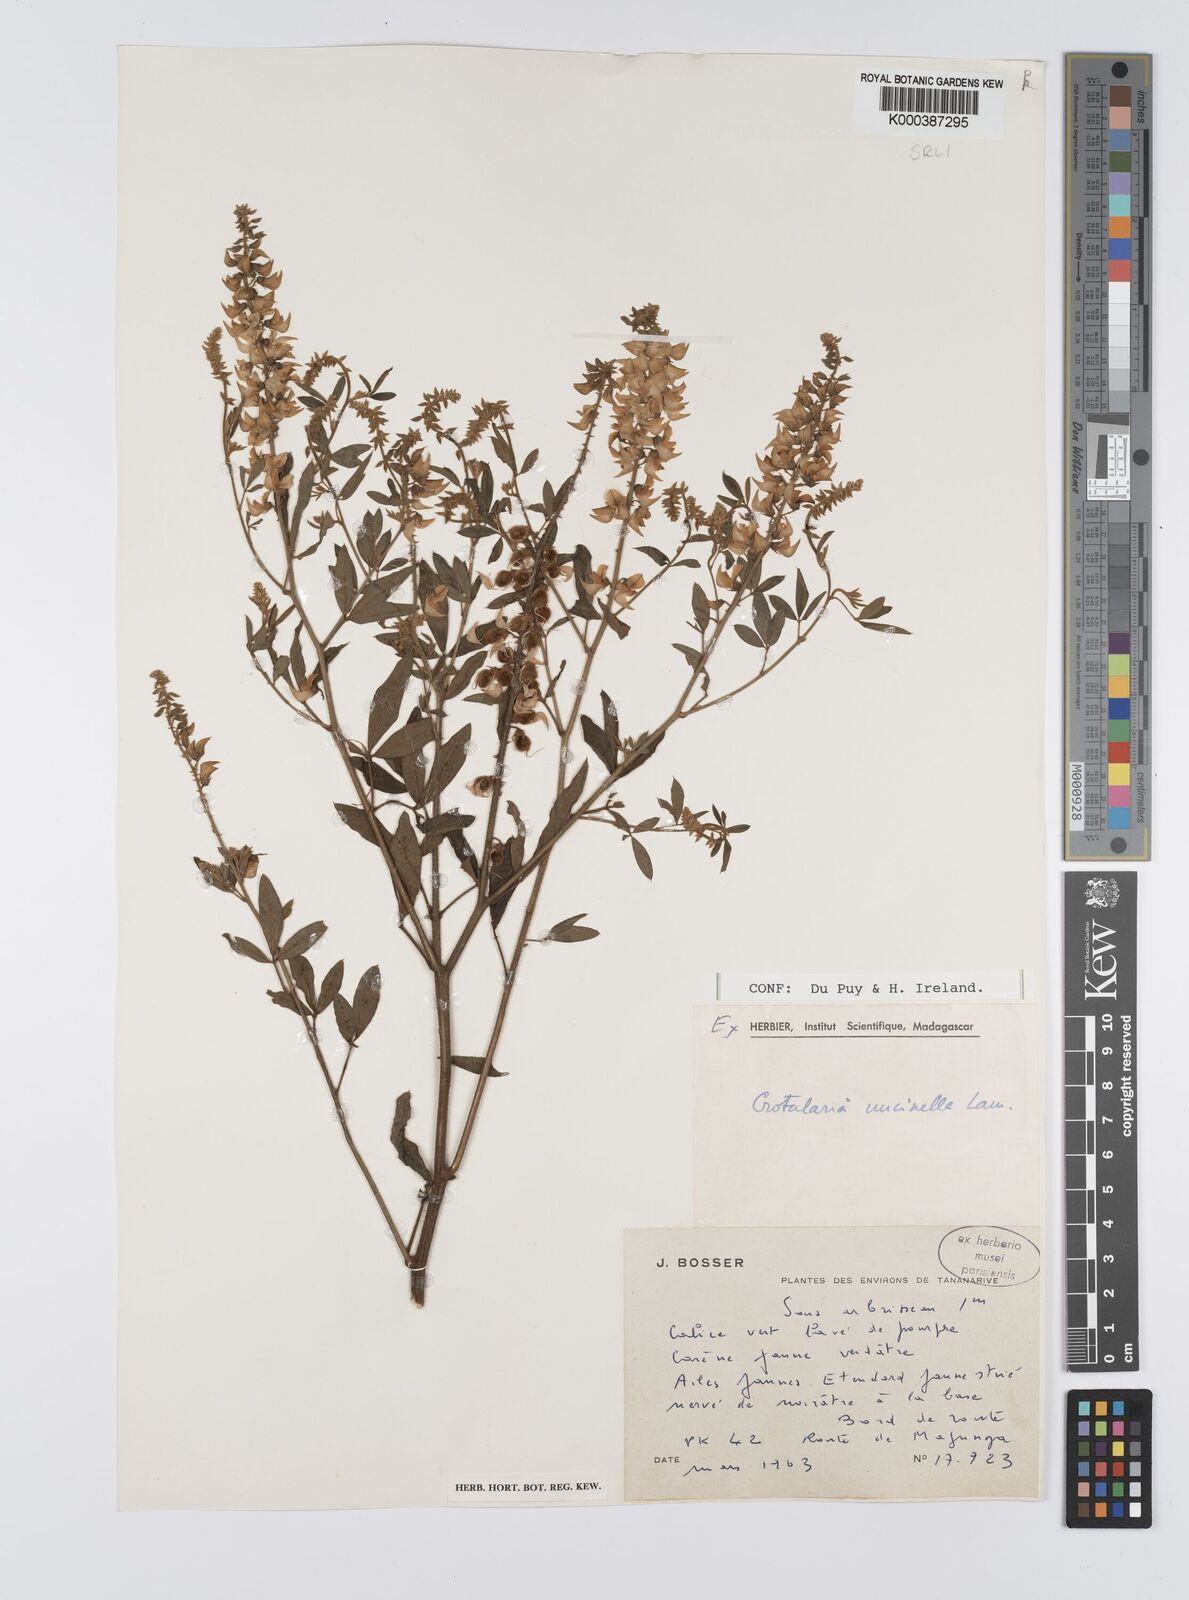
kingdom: Plantae
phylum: Tracheophyta
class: Magnoliopsida
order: Fabales
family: Fabaceae
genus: Crotalaria
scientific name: Crotalaria uncinella
